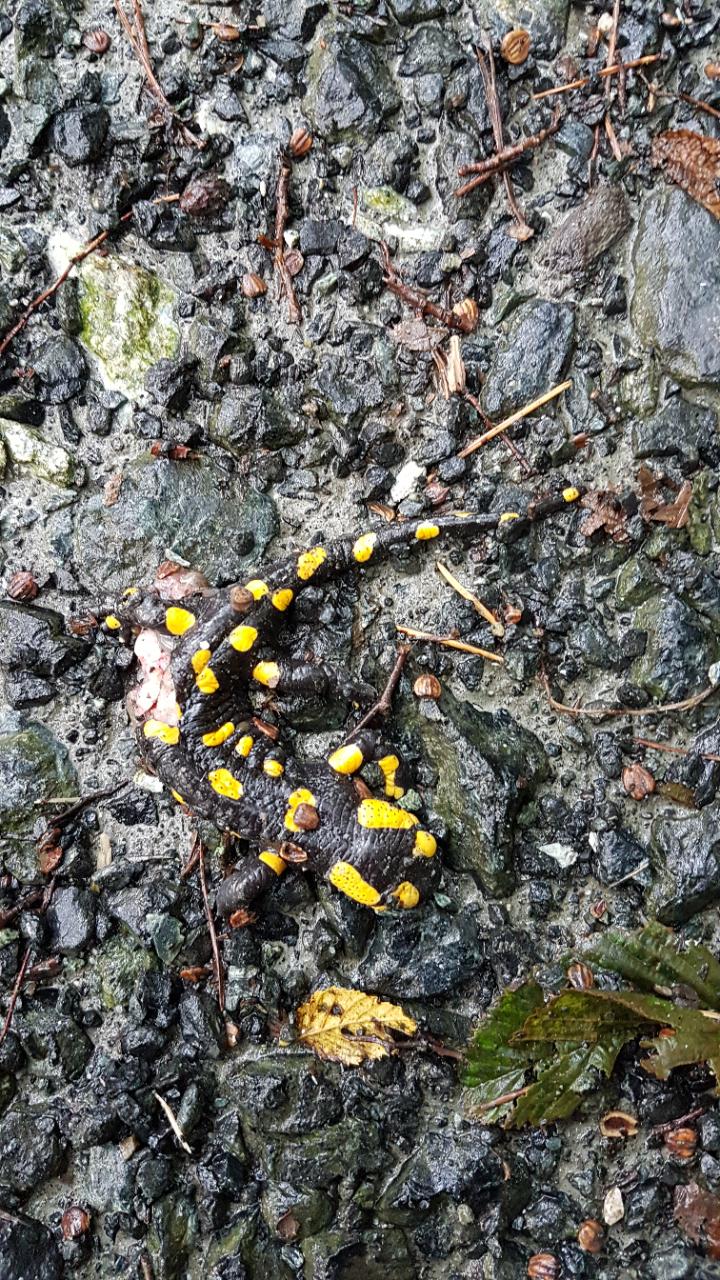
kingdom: Animalia
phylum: Chordata
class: Amphibia
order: Caudata
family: Salamandridae
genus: Salamandra
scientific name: Salamandra salamandra
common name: Fire salamander
